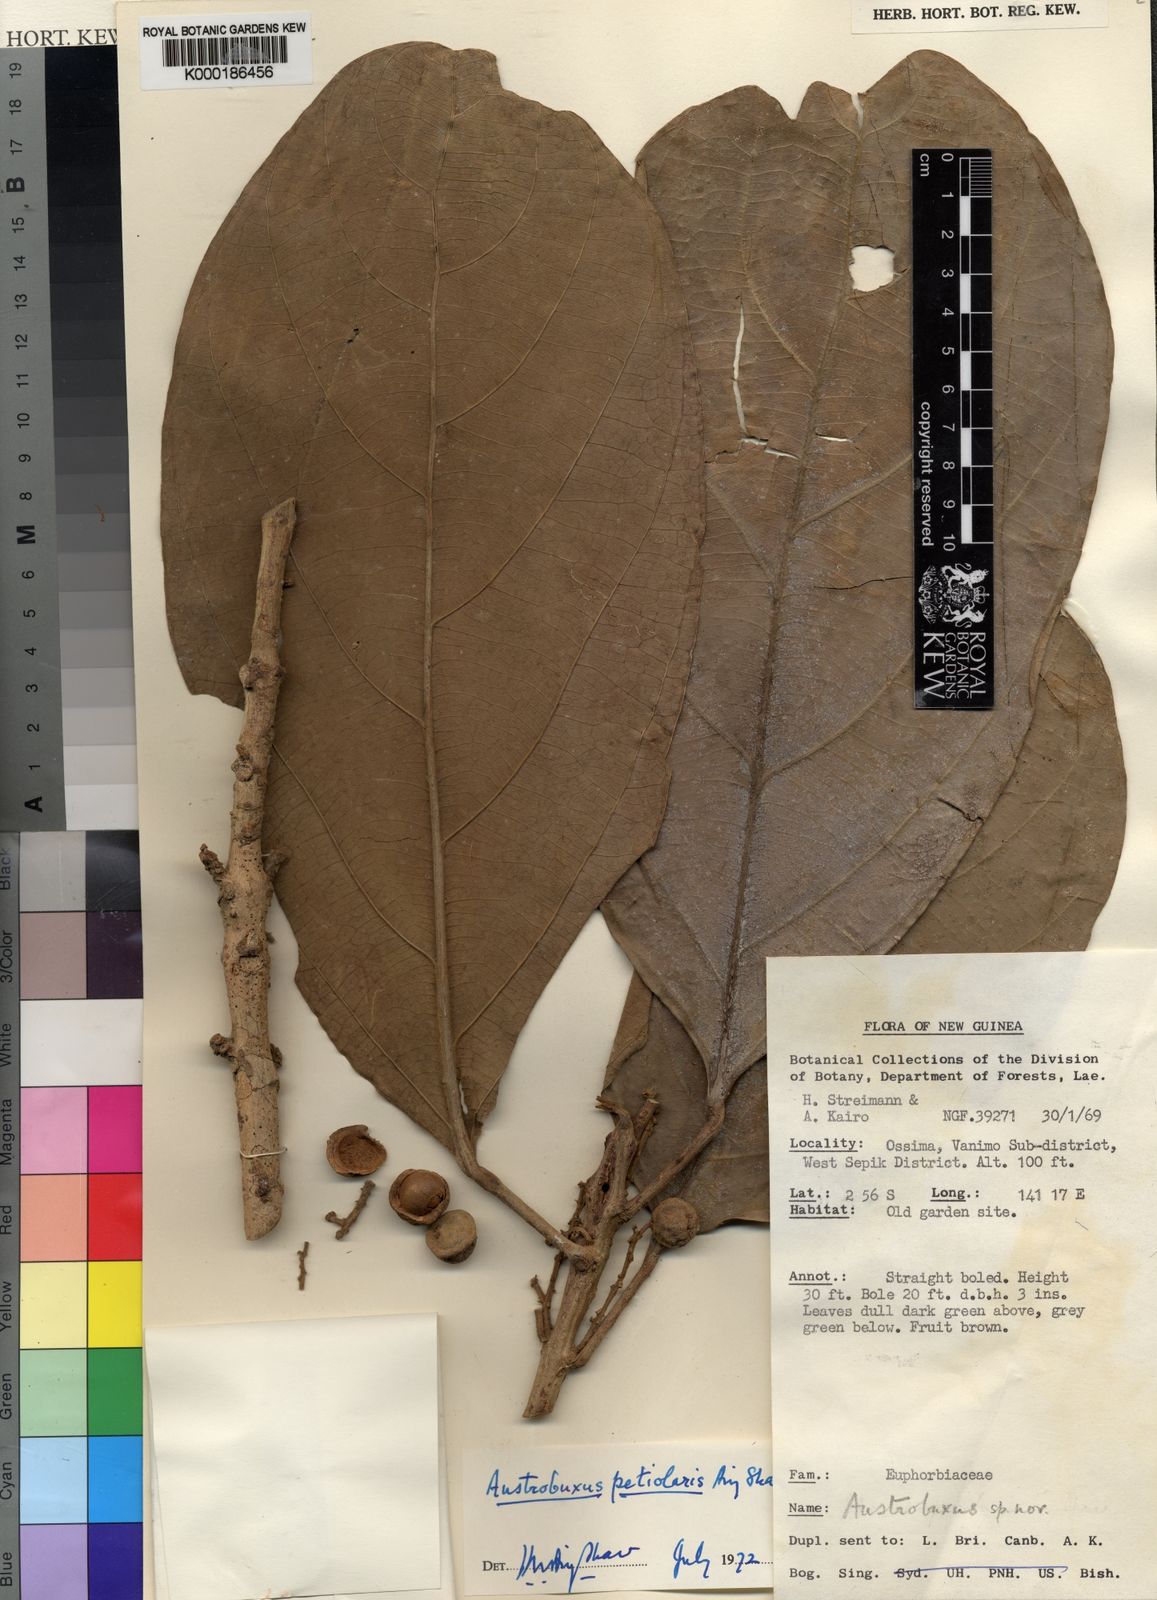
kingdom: Plantae
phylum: Tracheophyta
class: Magnoliopsida
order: Malpighiales
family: Achariaceae
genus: Ryparosa
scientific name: Ryparosa javanica
